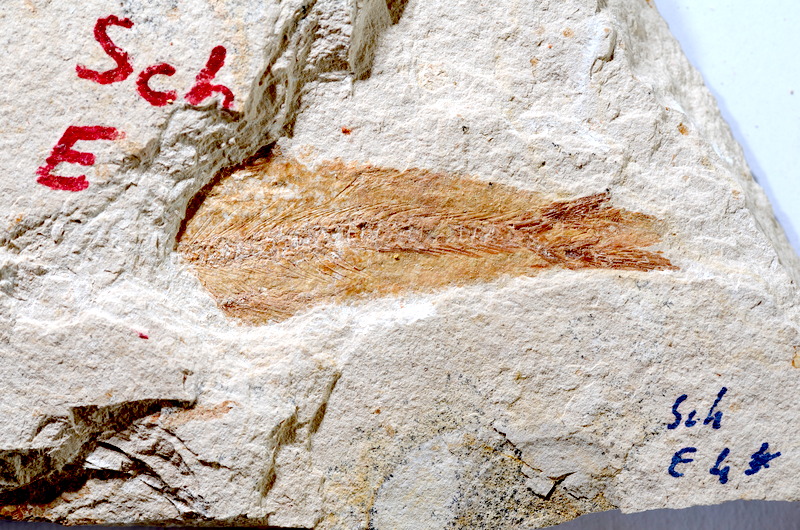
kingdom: Animalia
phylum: Chordata
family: Ascalaboidae
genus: Tharsis
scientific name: Tharsis dubius
